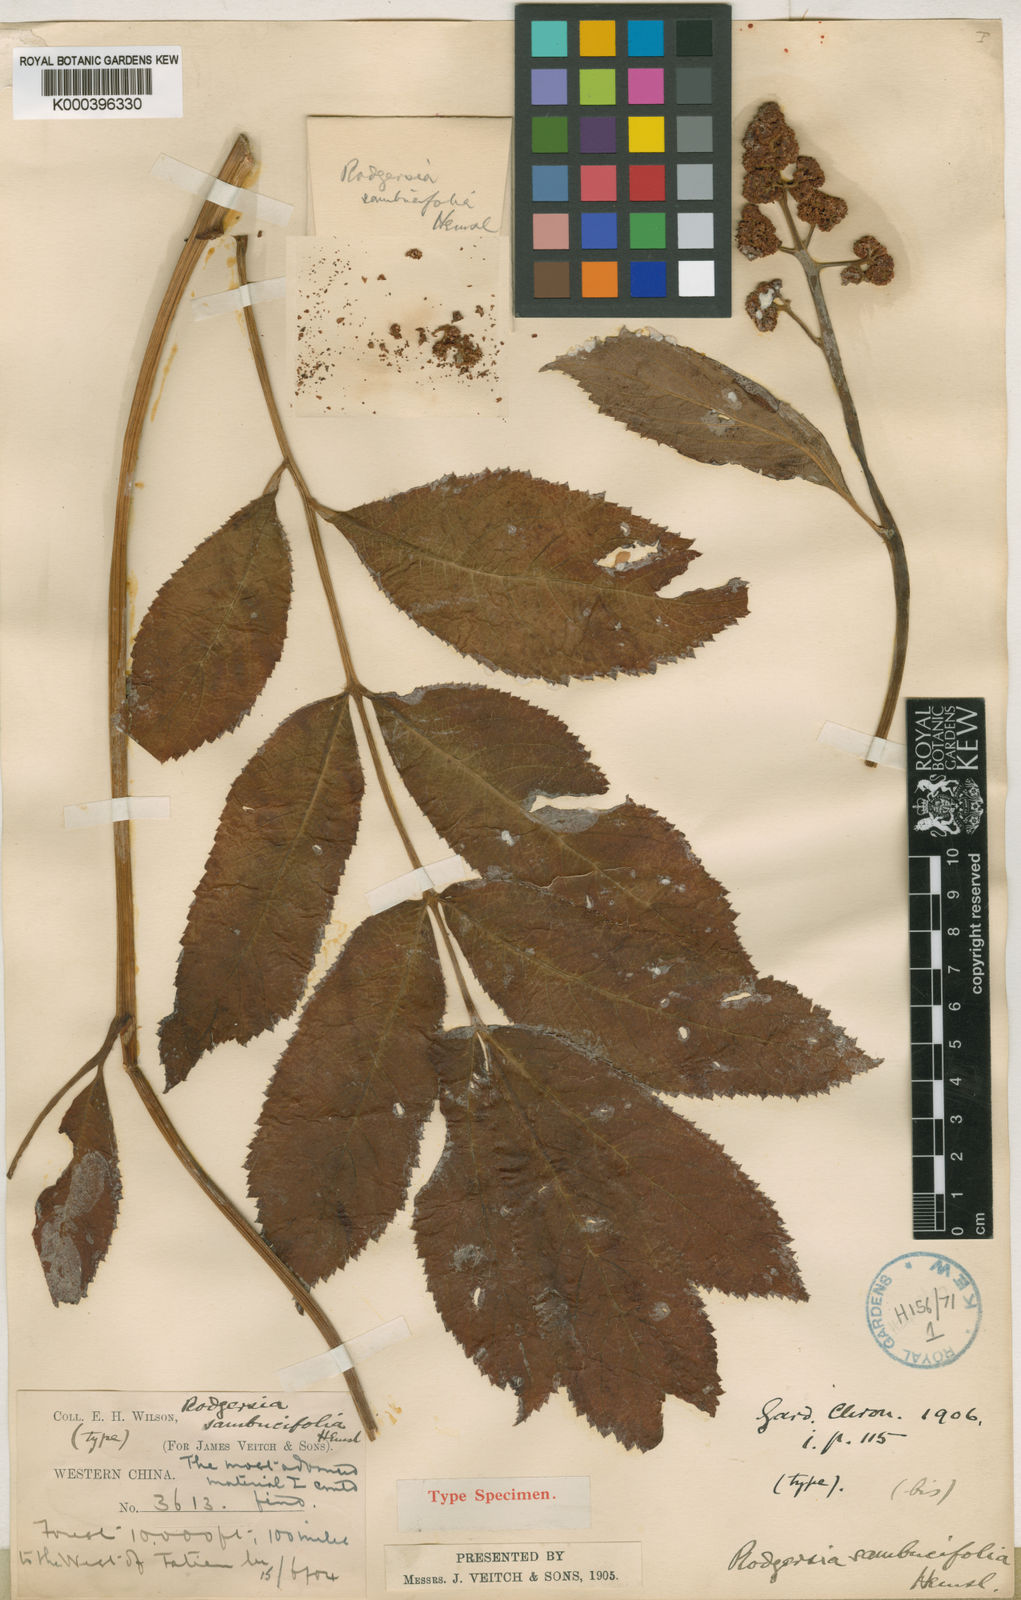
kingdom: Plantae
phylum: Tracheophyta
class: Magnoliopsida
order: Saxifragales
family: Saxifragaceae
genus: Rodgersia
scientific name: Rodgersia sambucifolia
